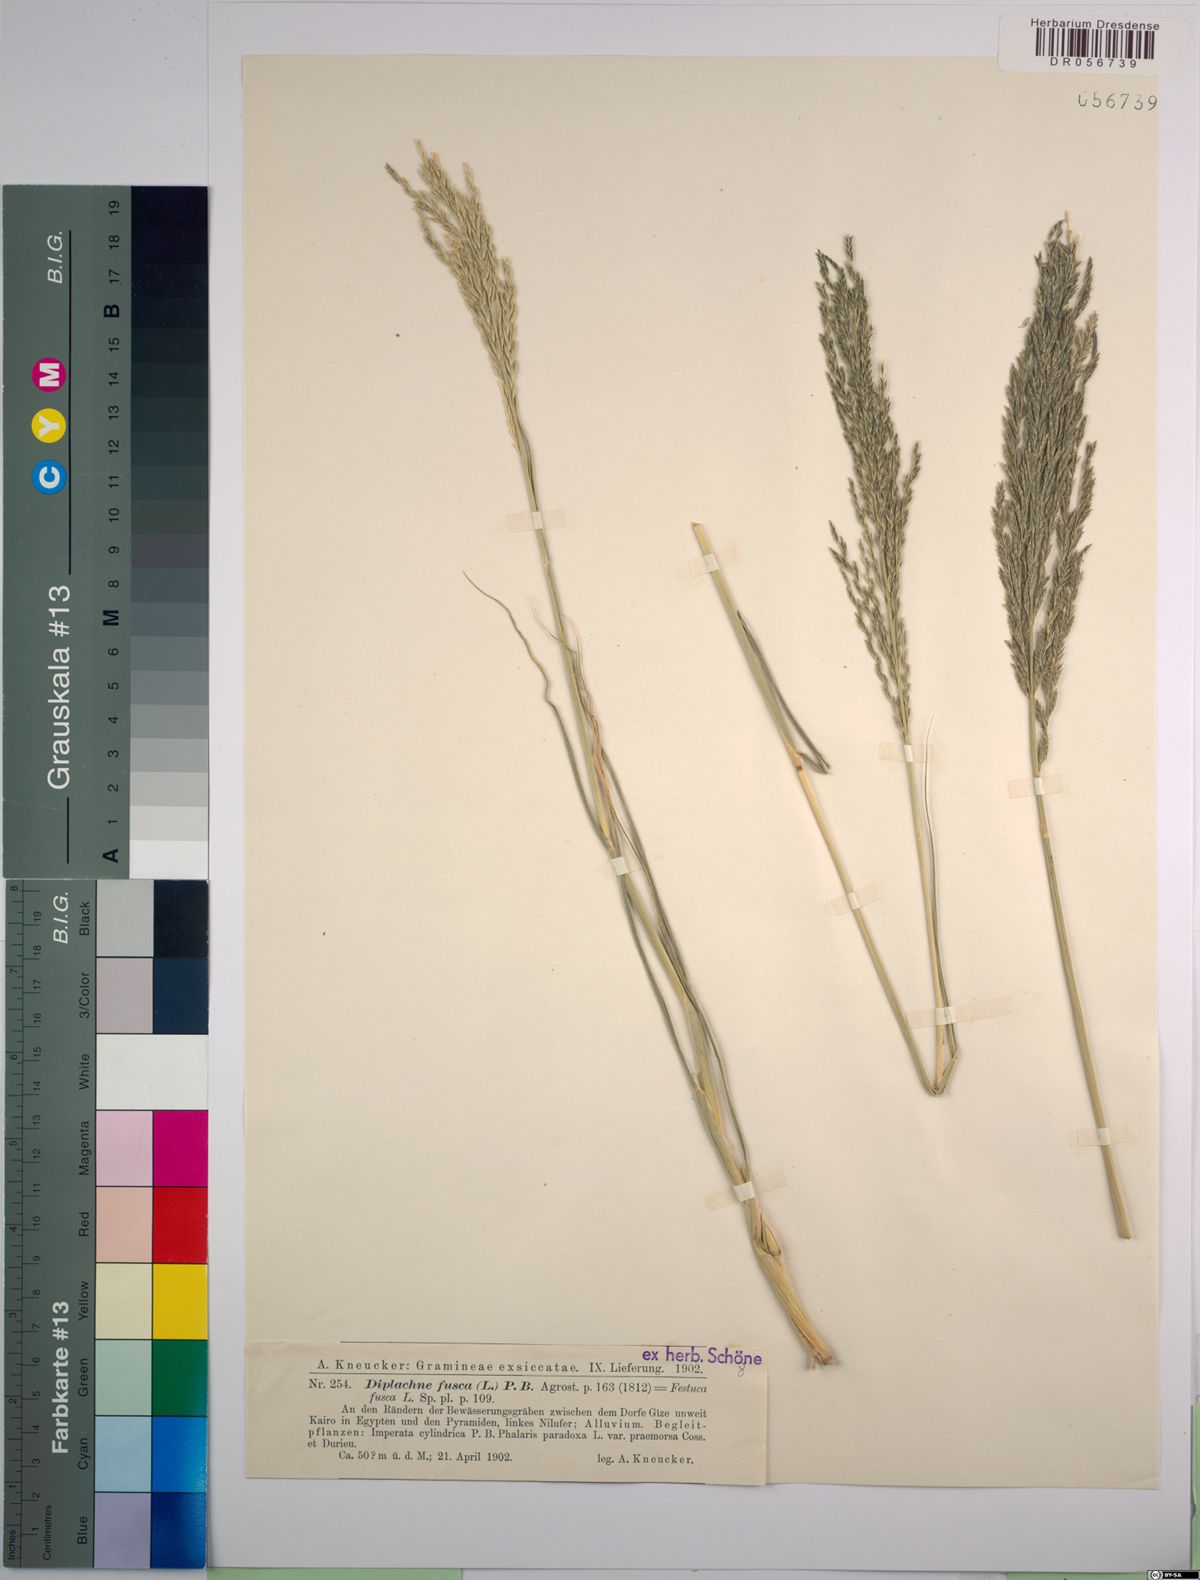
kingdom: Plantae
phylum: Tracheophyta
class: Liliopsida
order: Poales
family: Poaceae
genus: Diplachne
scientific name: Diplachne fusca
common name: Brown beetle grass
